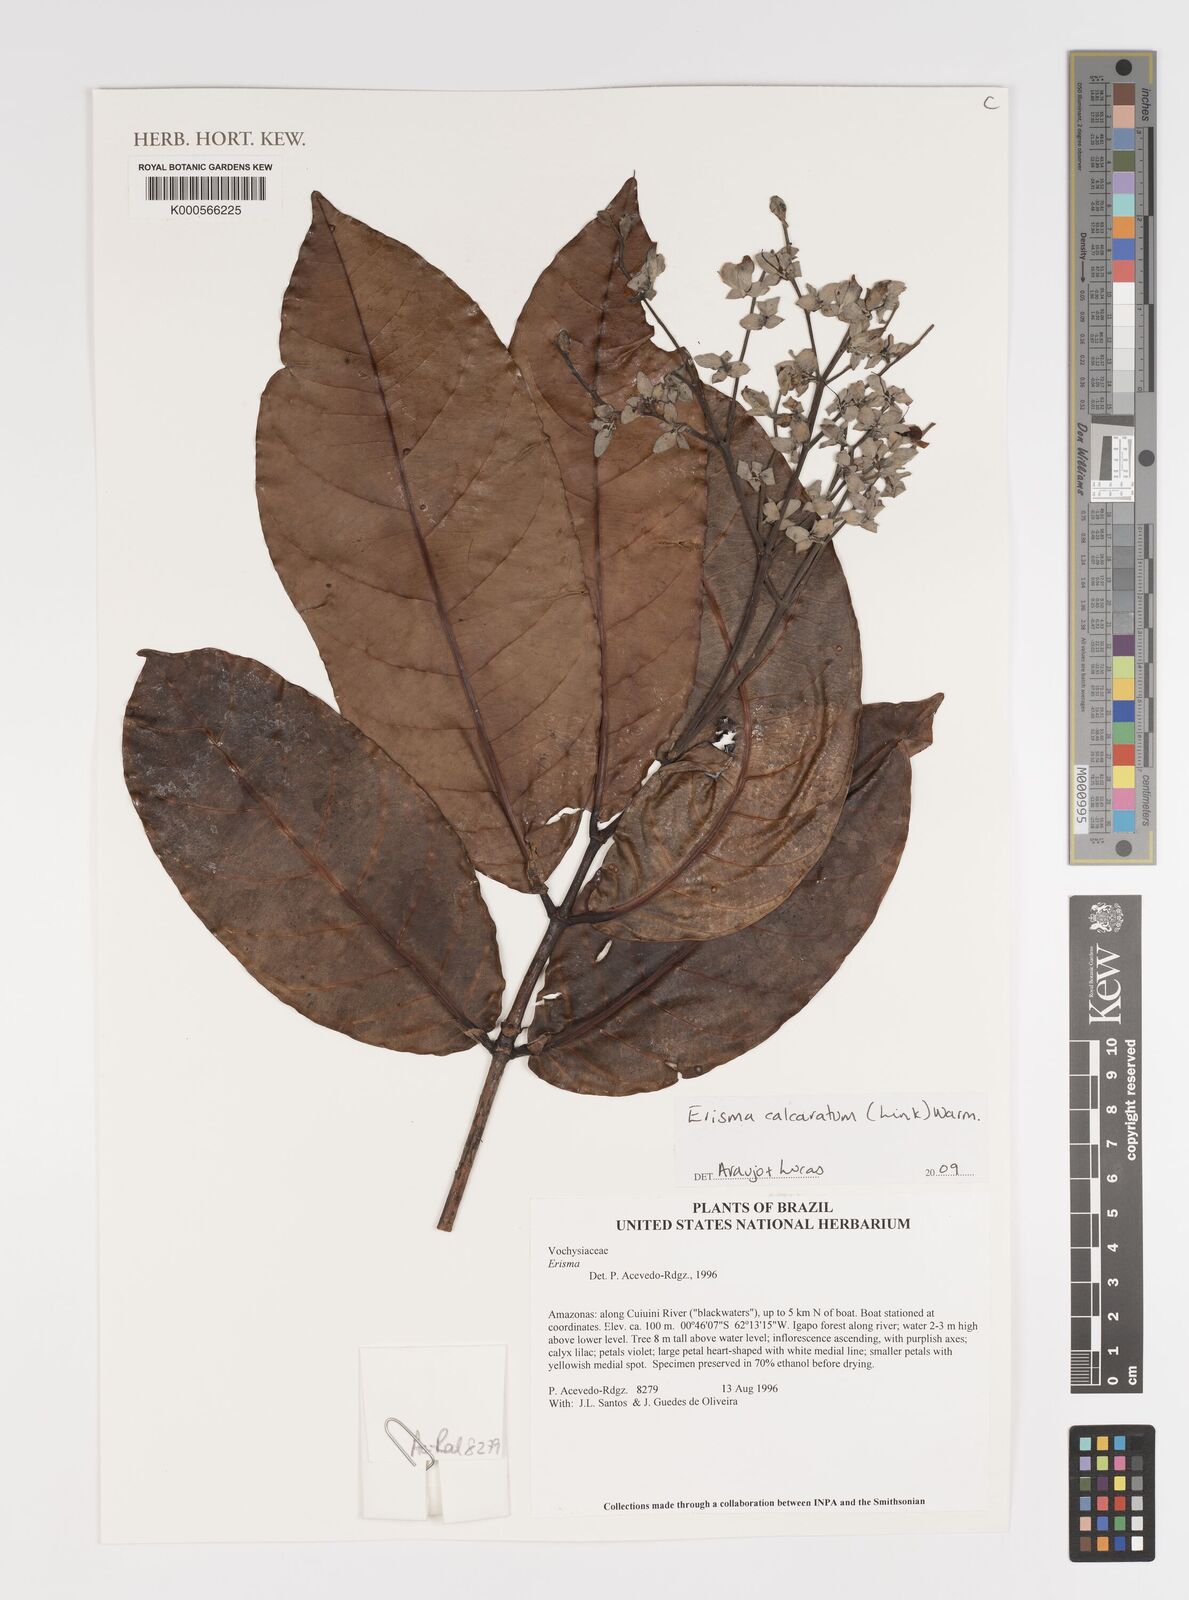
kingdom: Plantae
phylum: Tracheophyta
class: Magnoliopsida
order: Myrtales
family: Vochysiaceae
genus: Erisma
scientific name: Erisma calcaratum
